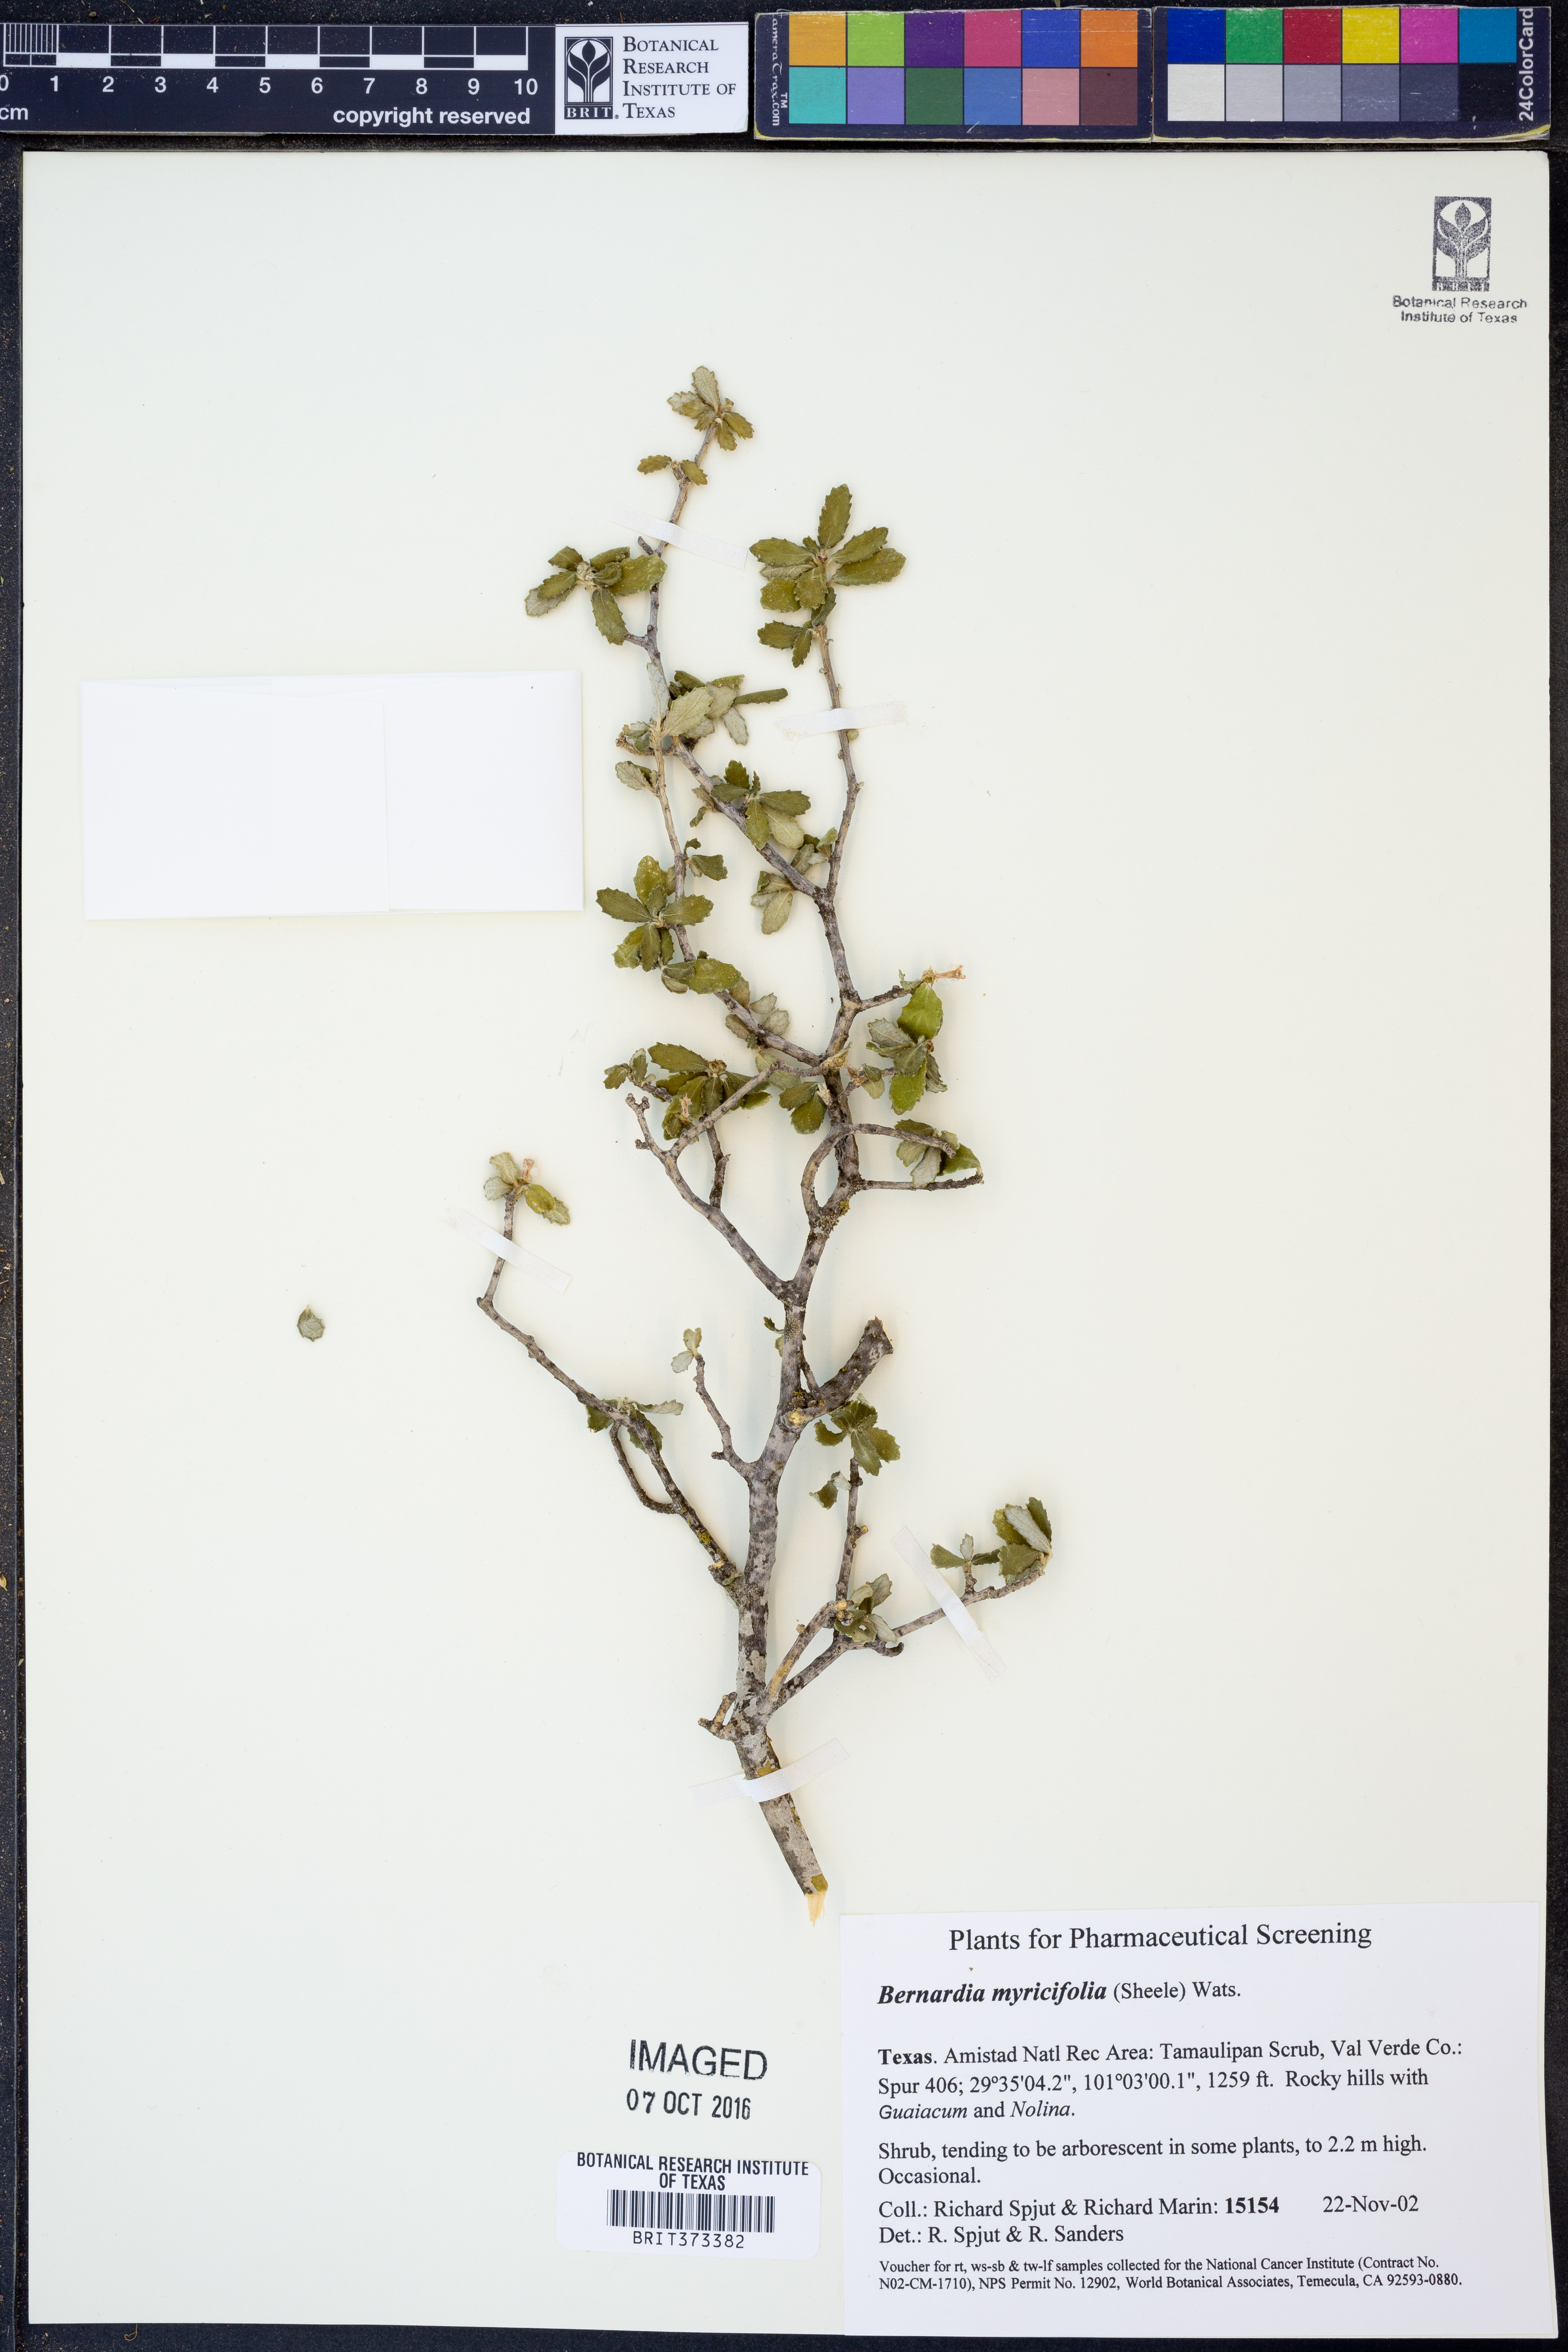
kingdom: Plantae
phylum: Tracheophyta
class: Magnoliopsida
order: Malpighiales
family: Euphorbiaceae
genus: Bernardia
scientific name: Bernardia myricifolia
